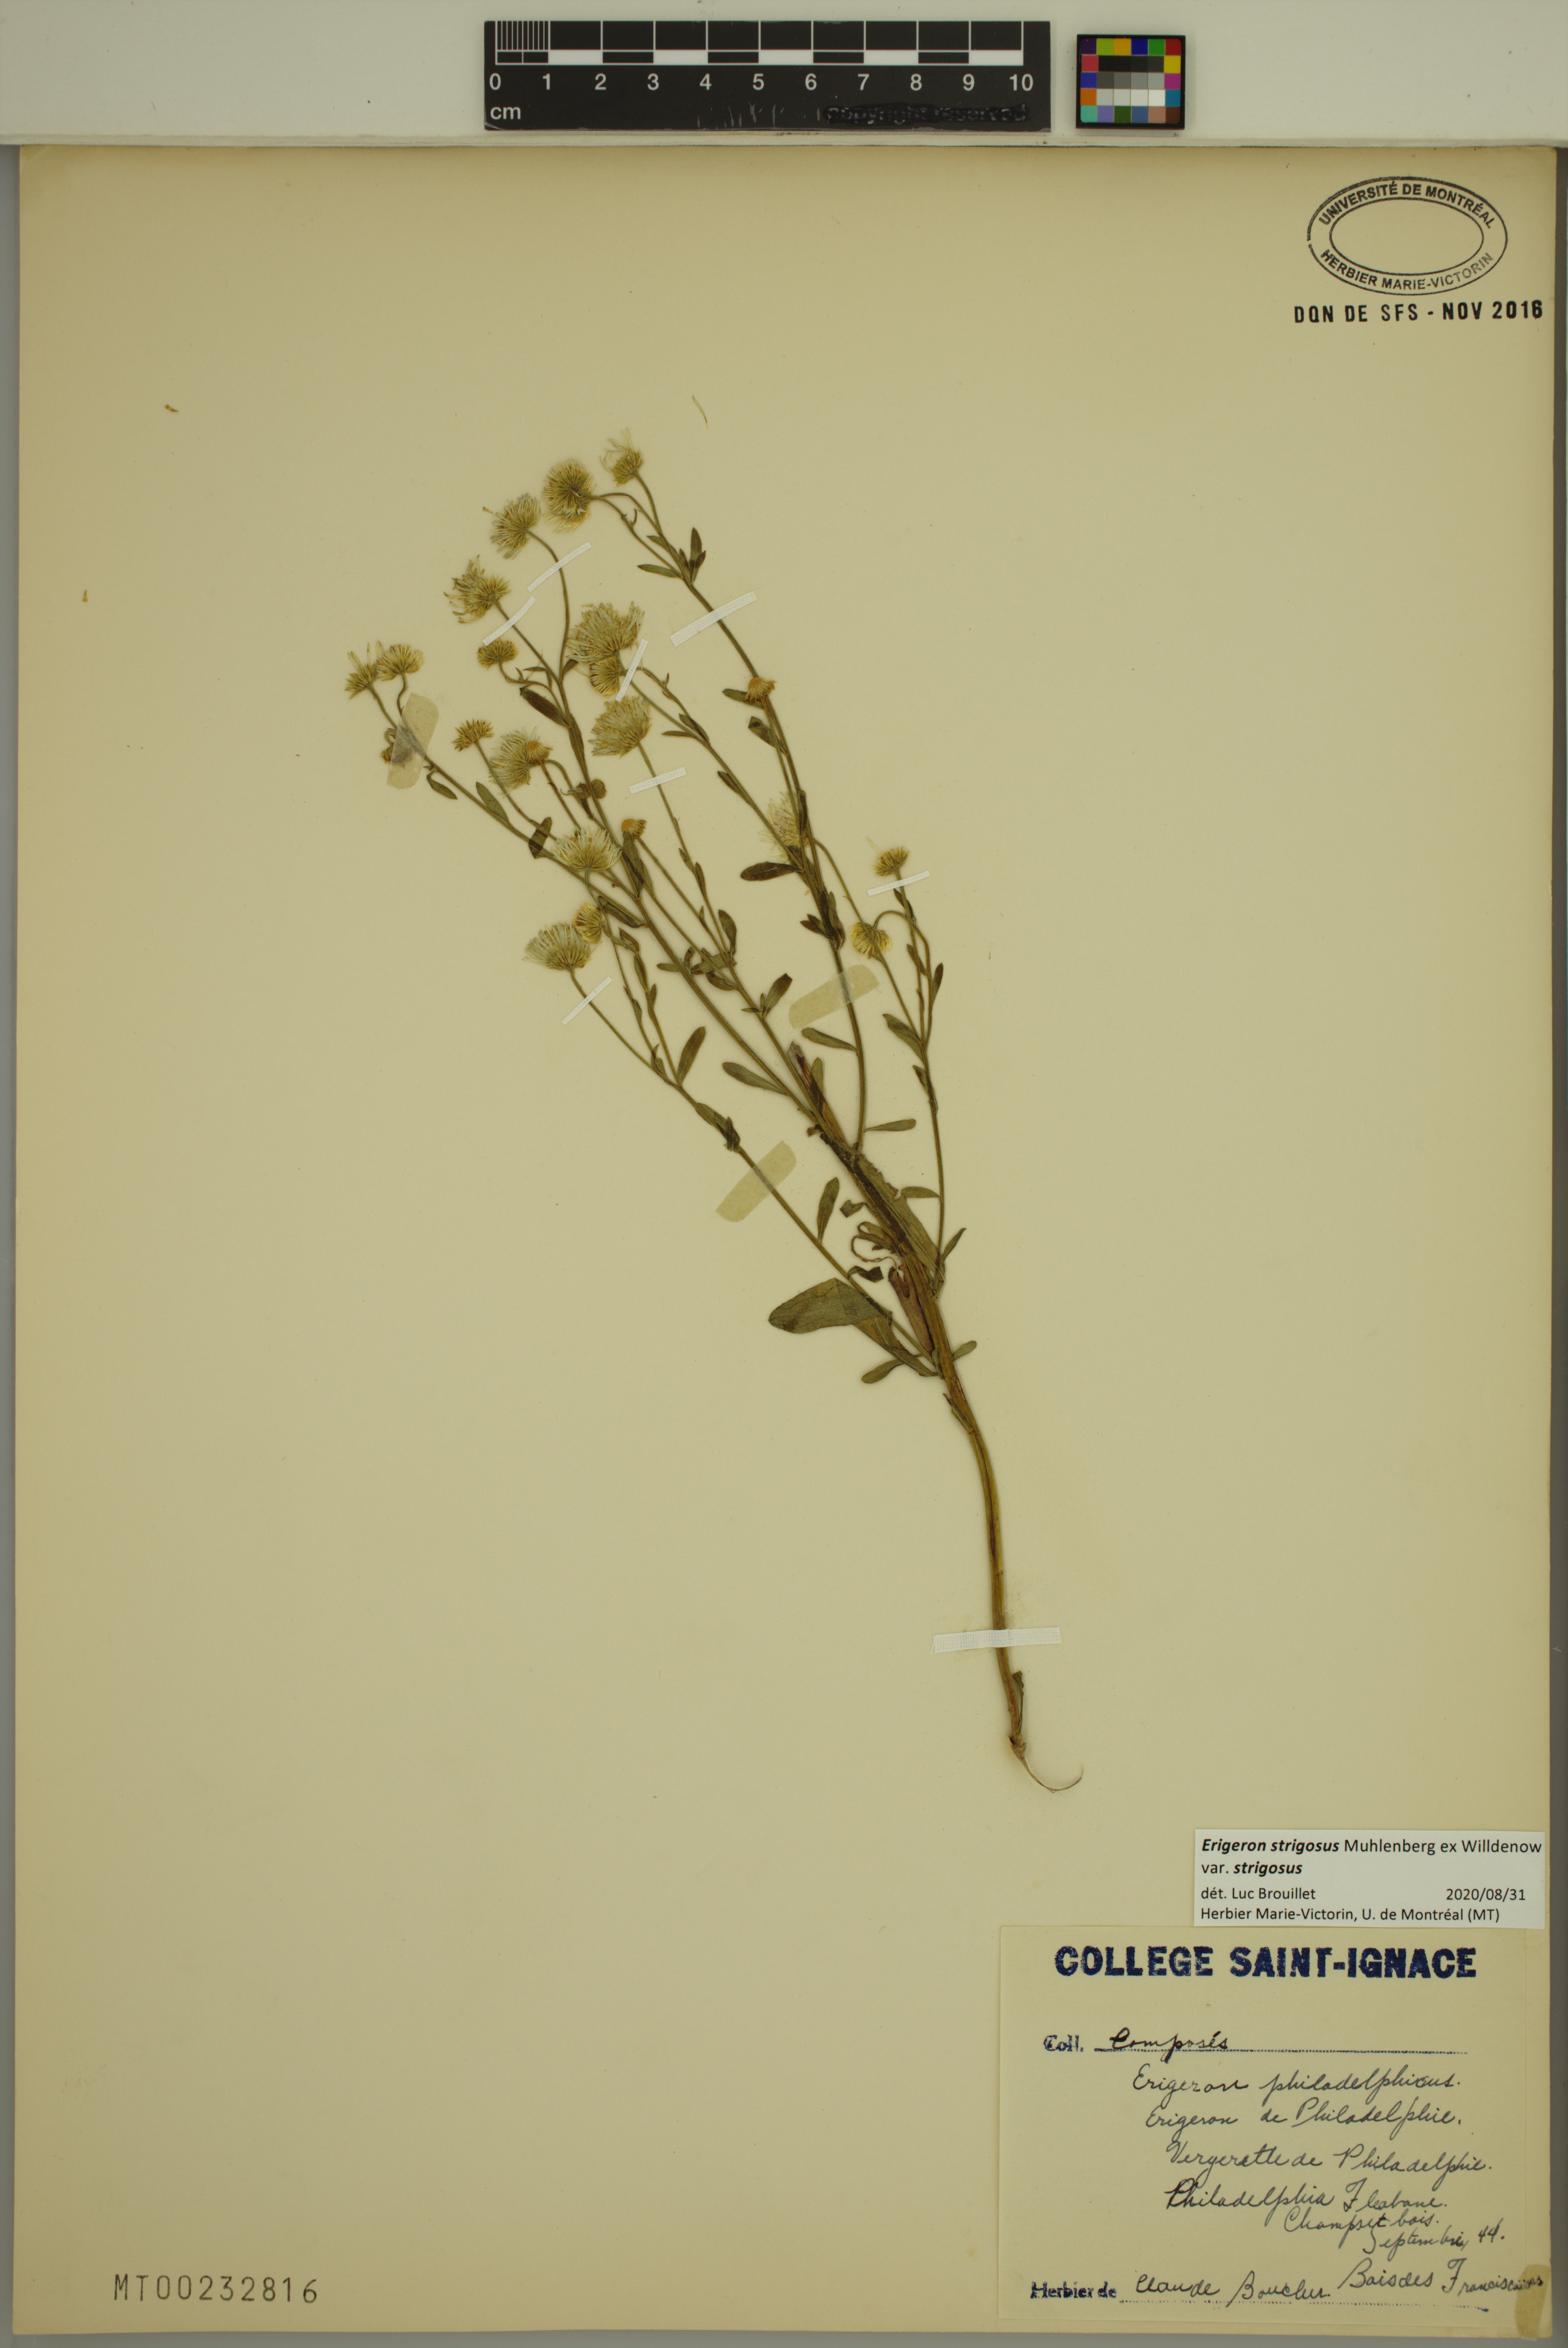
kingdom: Plantae
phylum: Tracheophyta
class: Magnoliopsida
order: Asterales
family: Asteraceae
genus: Erigeron
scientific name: Erigeron strigosus
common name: Common eastern fleabane
